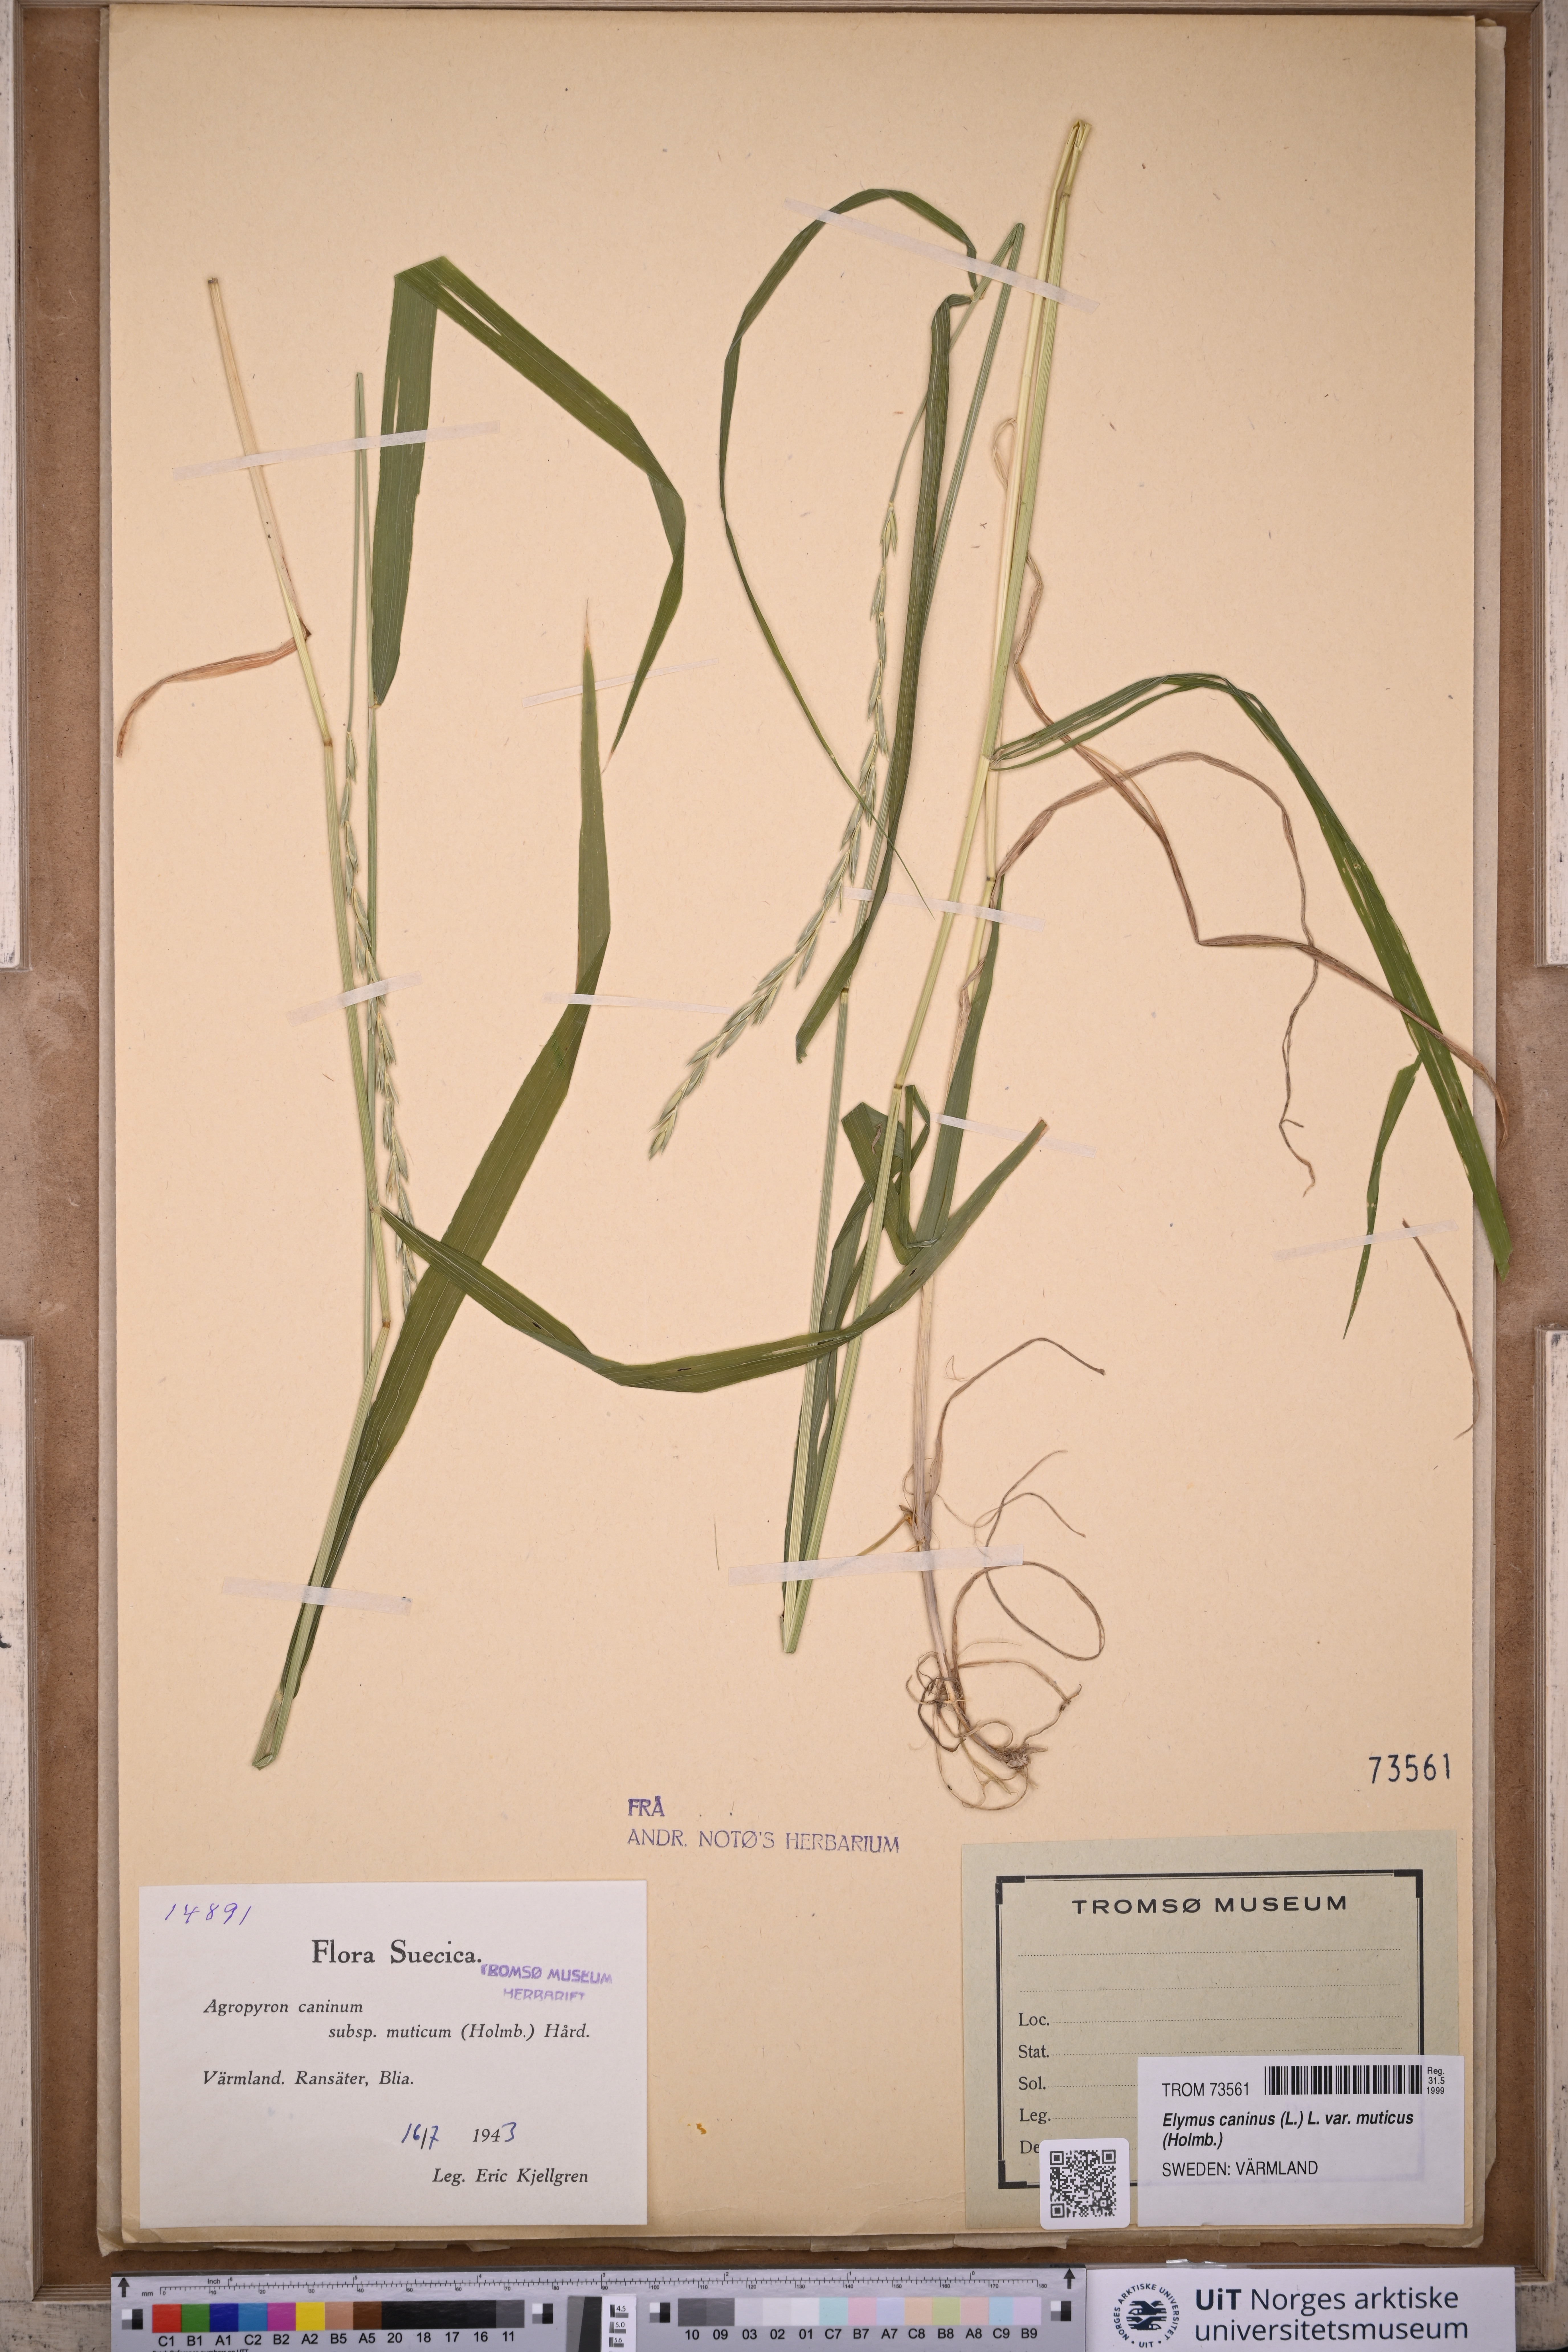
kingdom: Plantae
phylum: Tracheophyta
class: Liliopsida
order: Poales
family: Poaceae
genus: Elymus
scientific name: Elymus caninus
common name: Bearded couch
